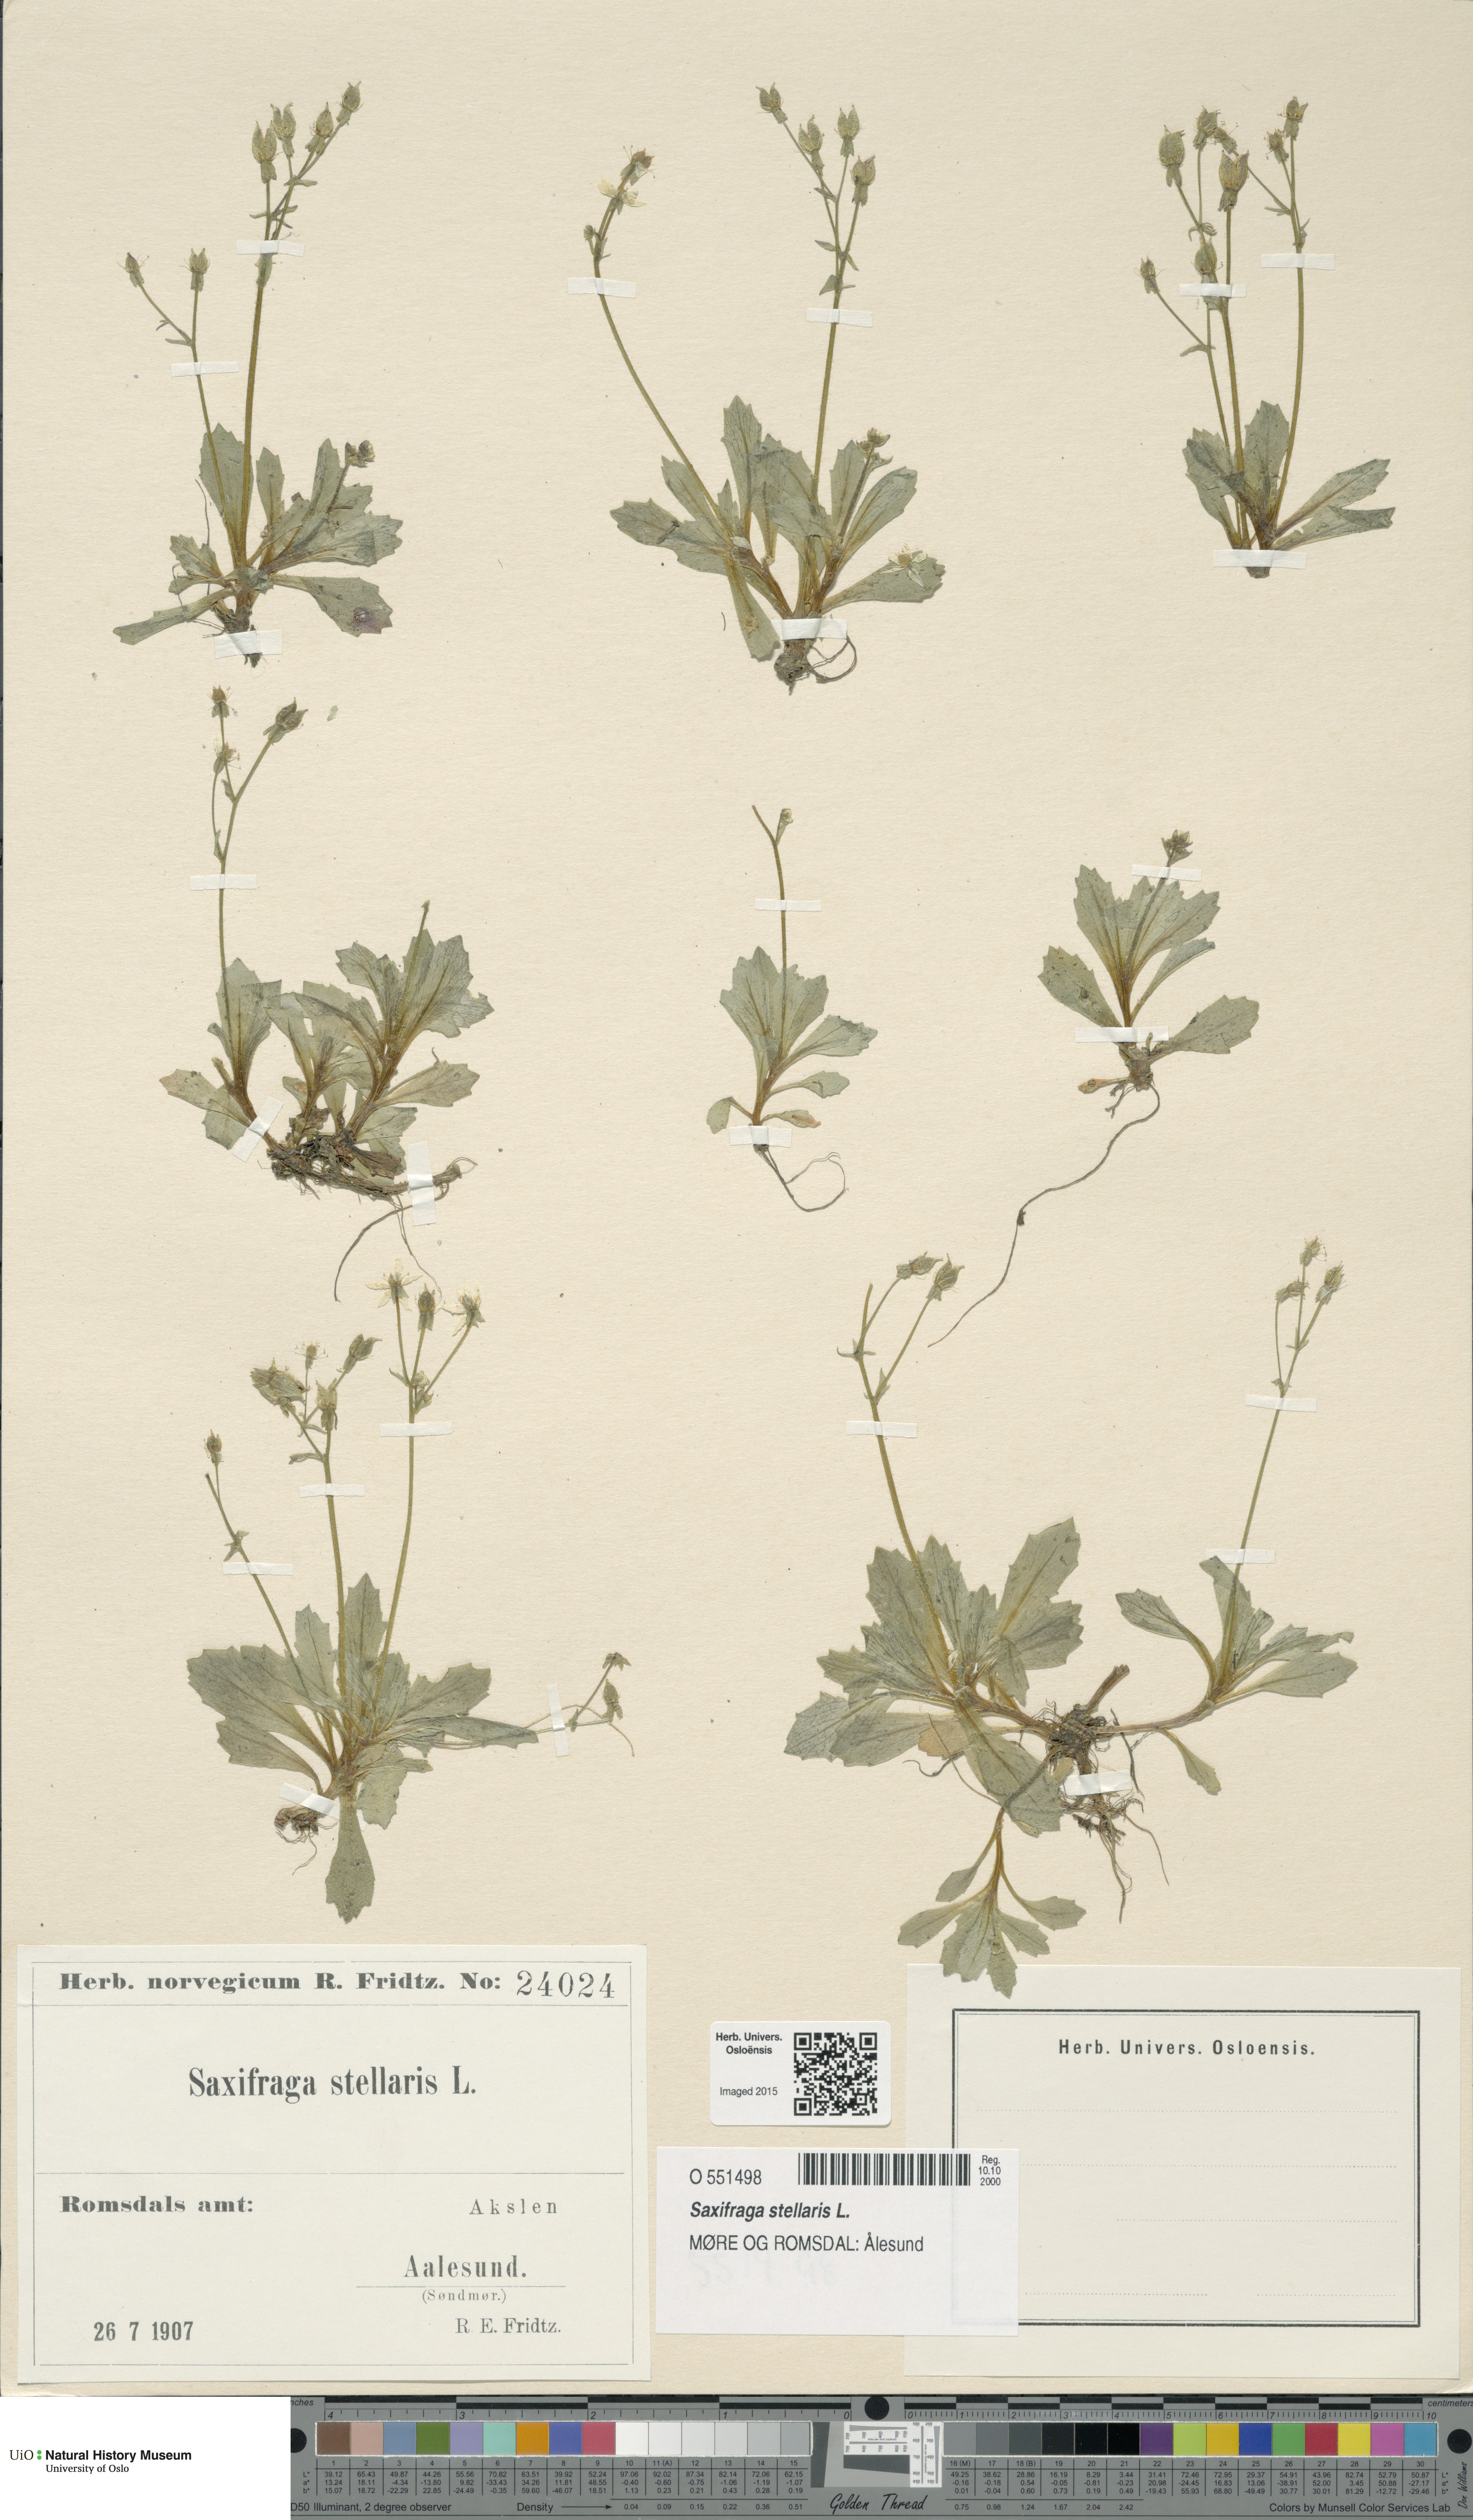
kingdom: Plantae
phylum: Tracheophyta
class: Magnoliopsida
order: Saxifragales
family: Saxifragaceae
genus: Micranthes
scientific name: Micranthes stellaris
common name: Starry saxifrage
